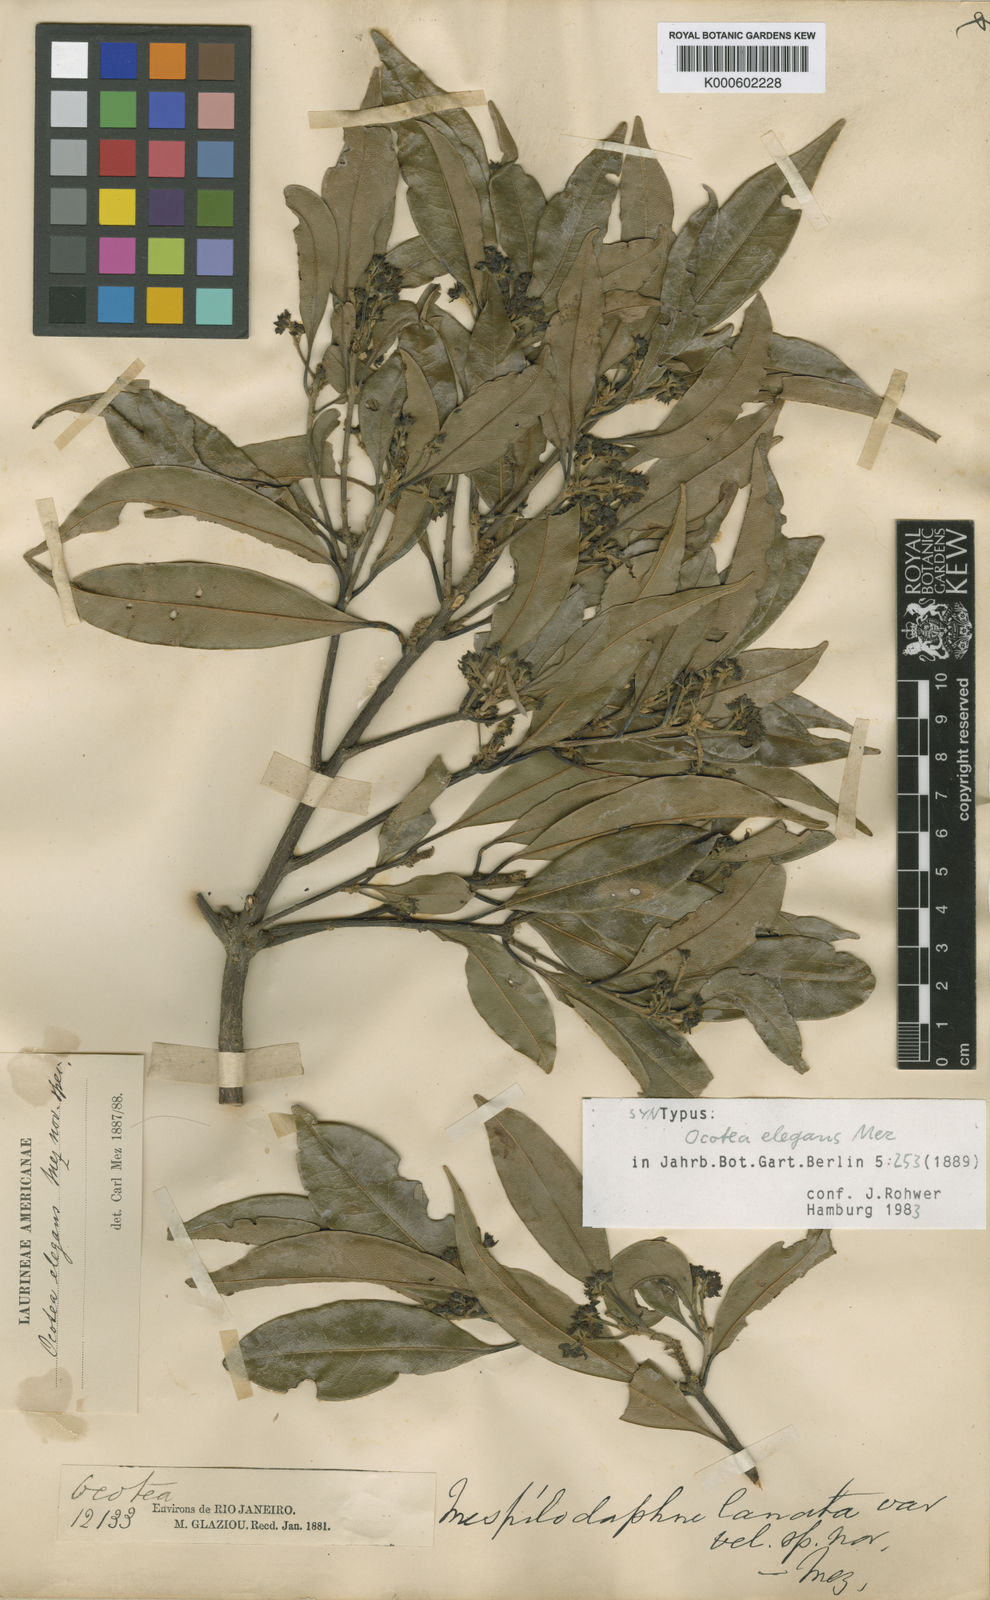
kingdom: Plantae
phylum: Tracheophyta
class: Magnoliopsida
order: Laurales
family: Lauraceae
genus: Mespilodaphne
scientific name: Mespilodaphne indecora
